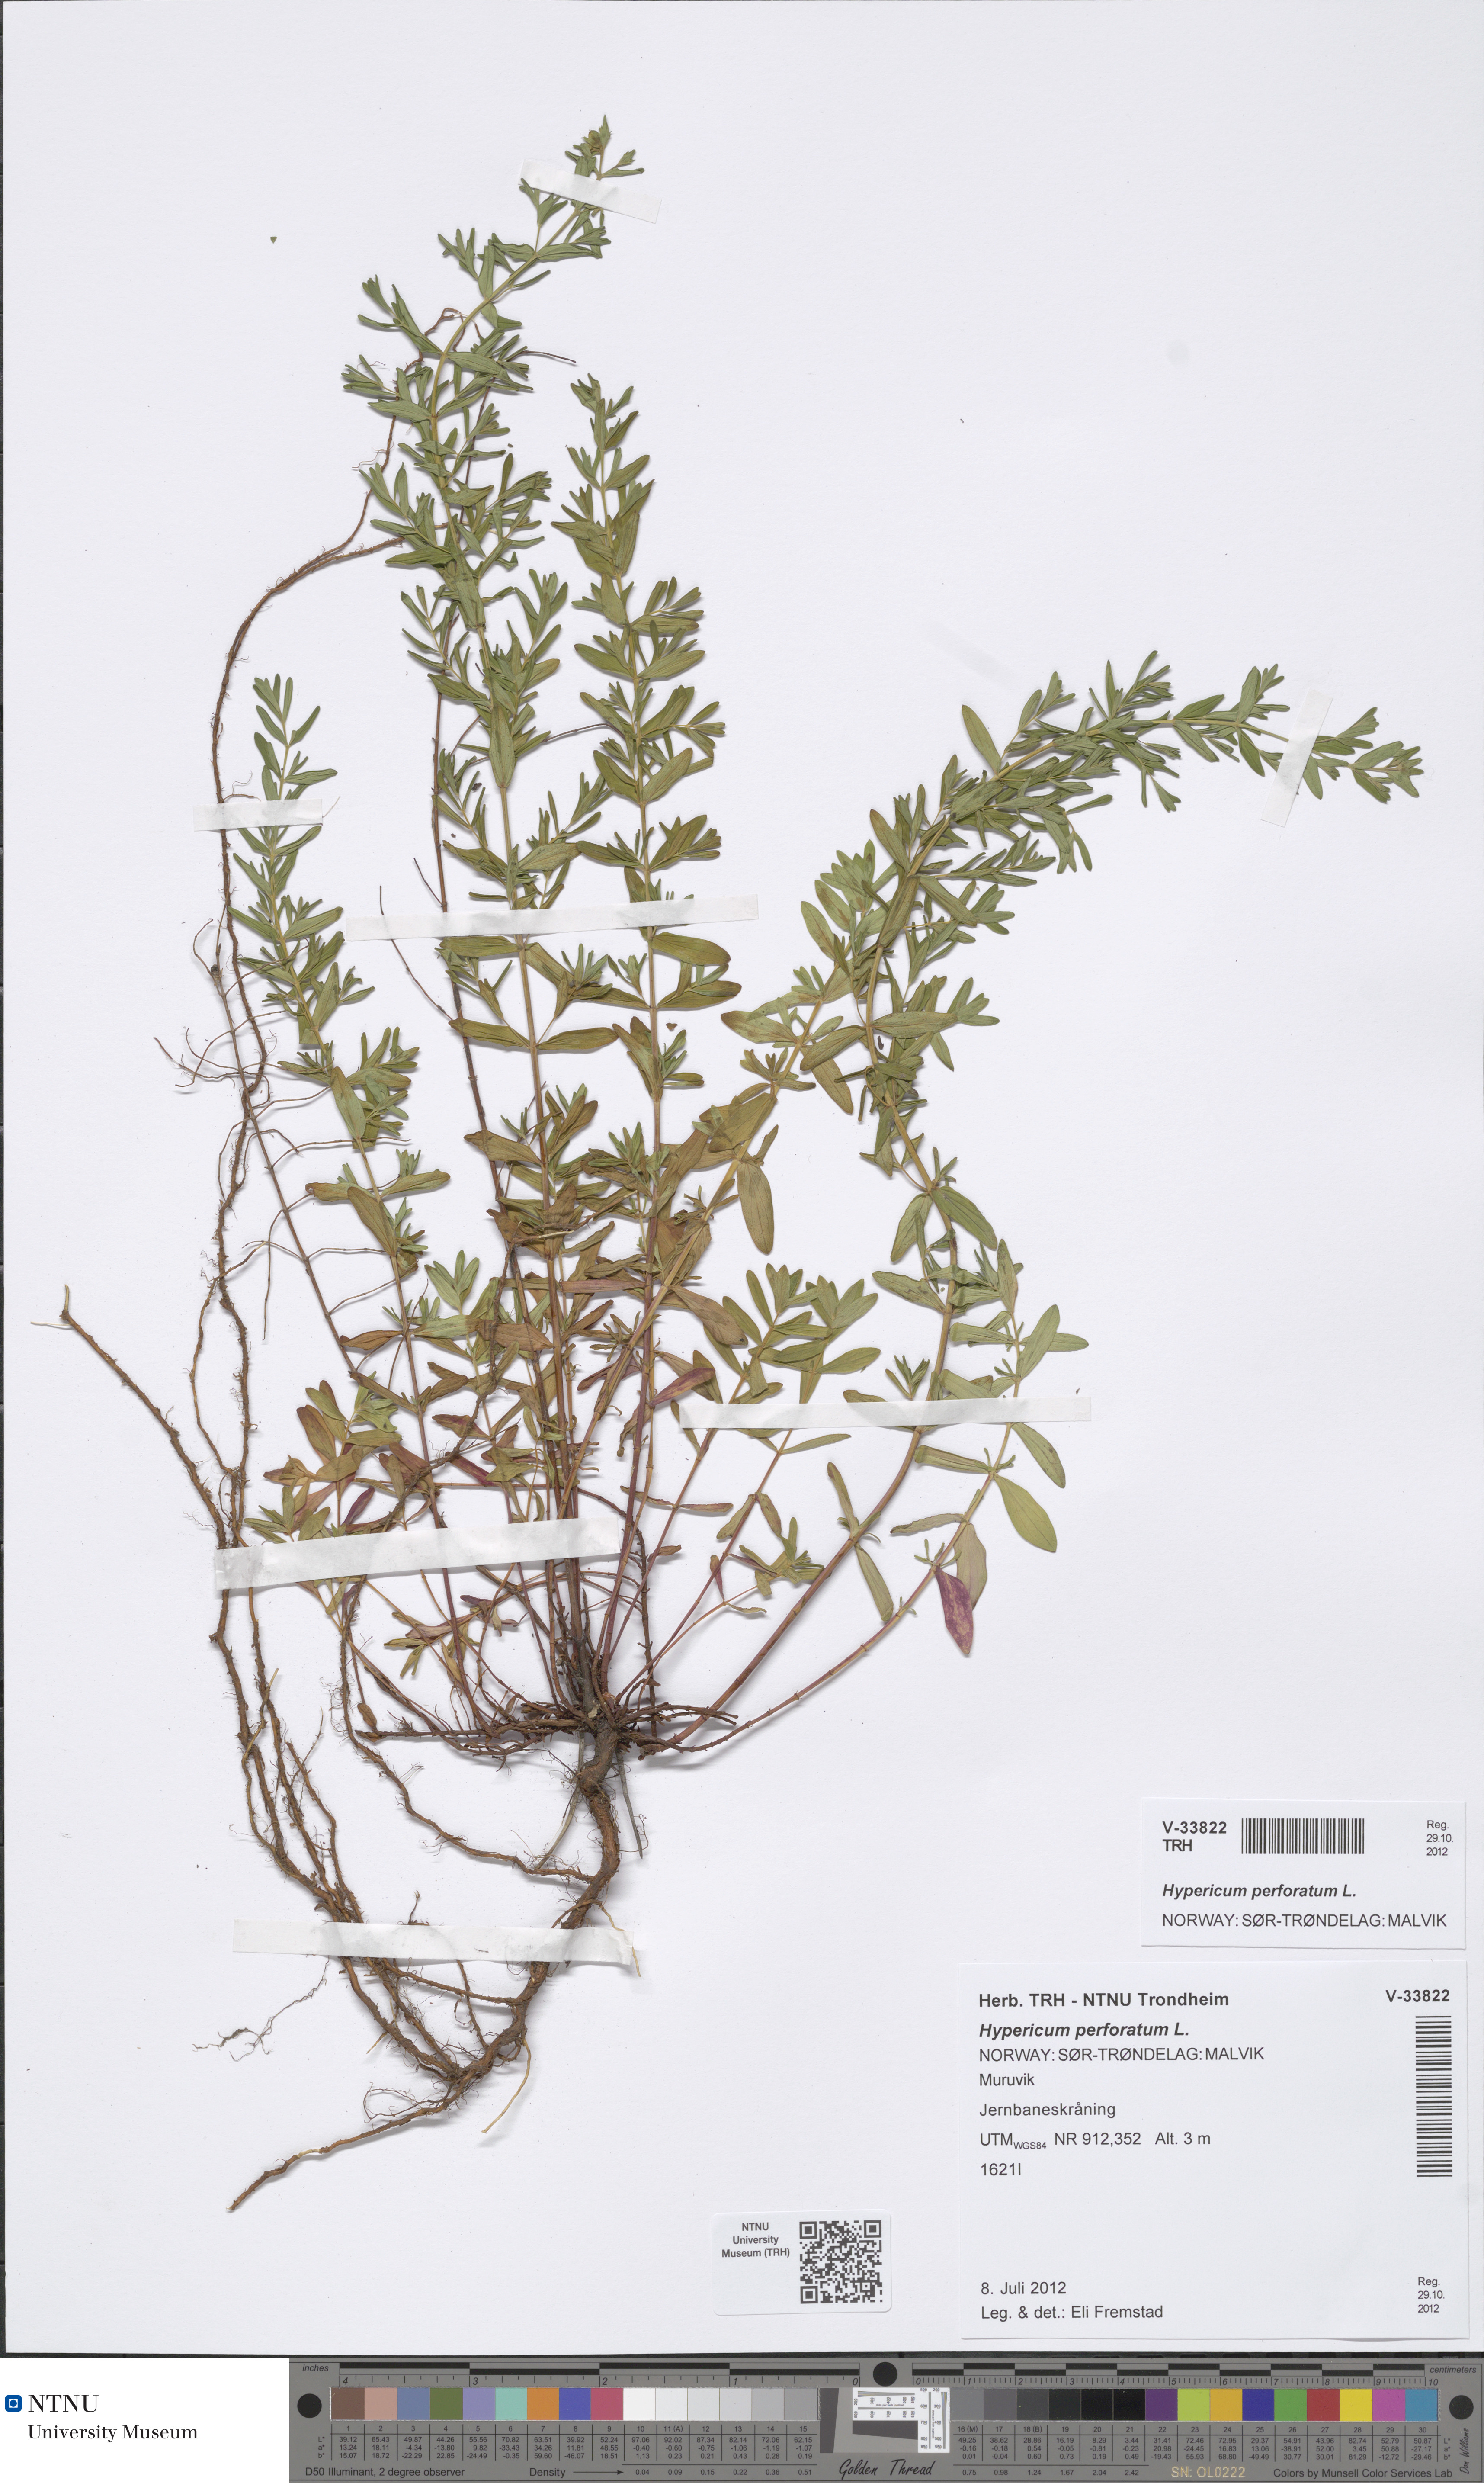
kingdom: Plantae
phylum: Tracheophyta
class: Magnoliopsida
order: Malpighiales
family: Hypericaceae
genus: Hypericum
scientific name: Hypericum perforatum
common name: Common st. johnswort
